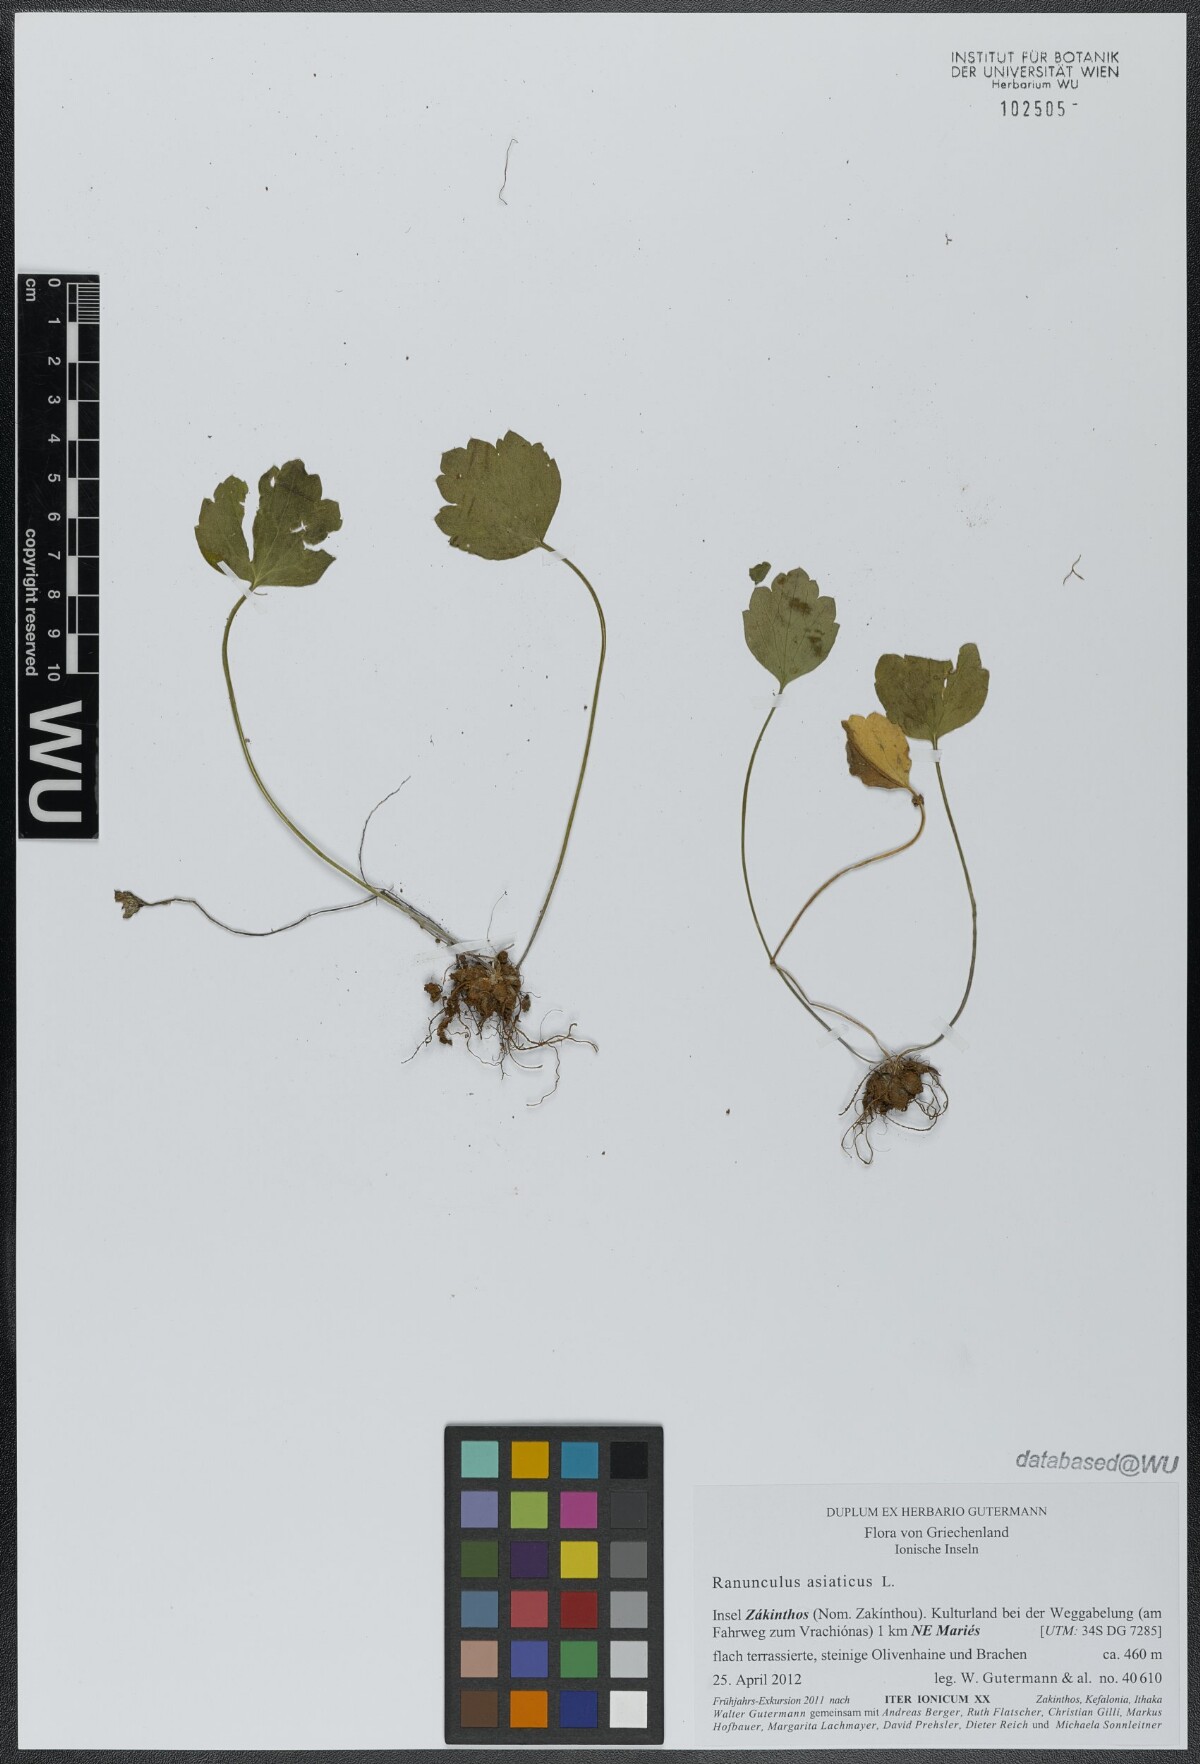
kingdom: Plantae
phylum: Tracheophyta
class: Magnoliopsida
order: Ranunculales
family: Ranunculaceae
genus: Ranunculus
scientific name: Ranunculus asiaticus
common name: Persian buttercup
